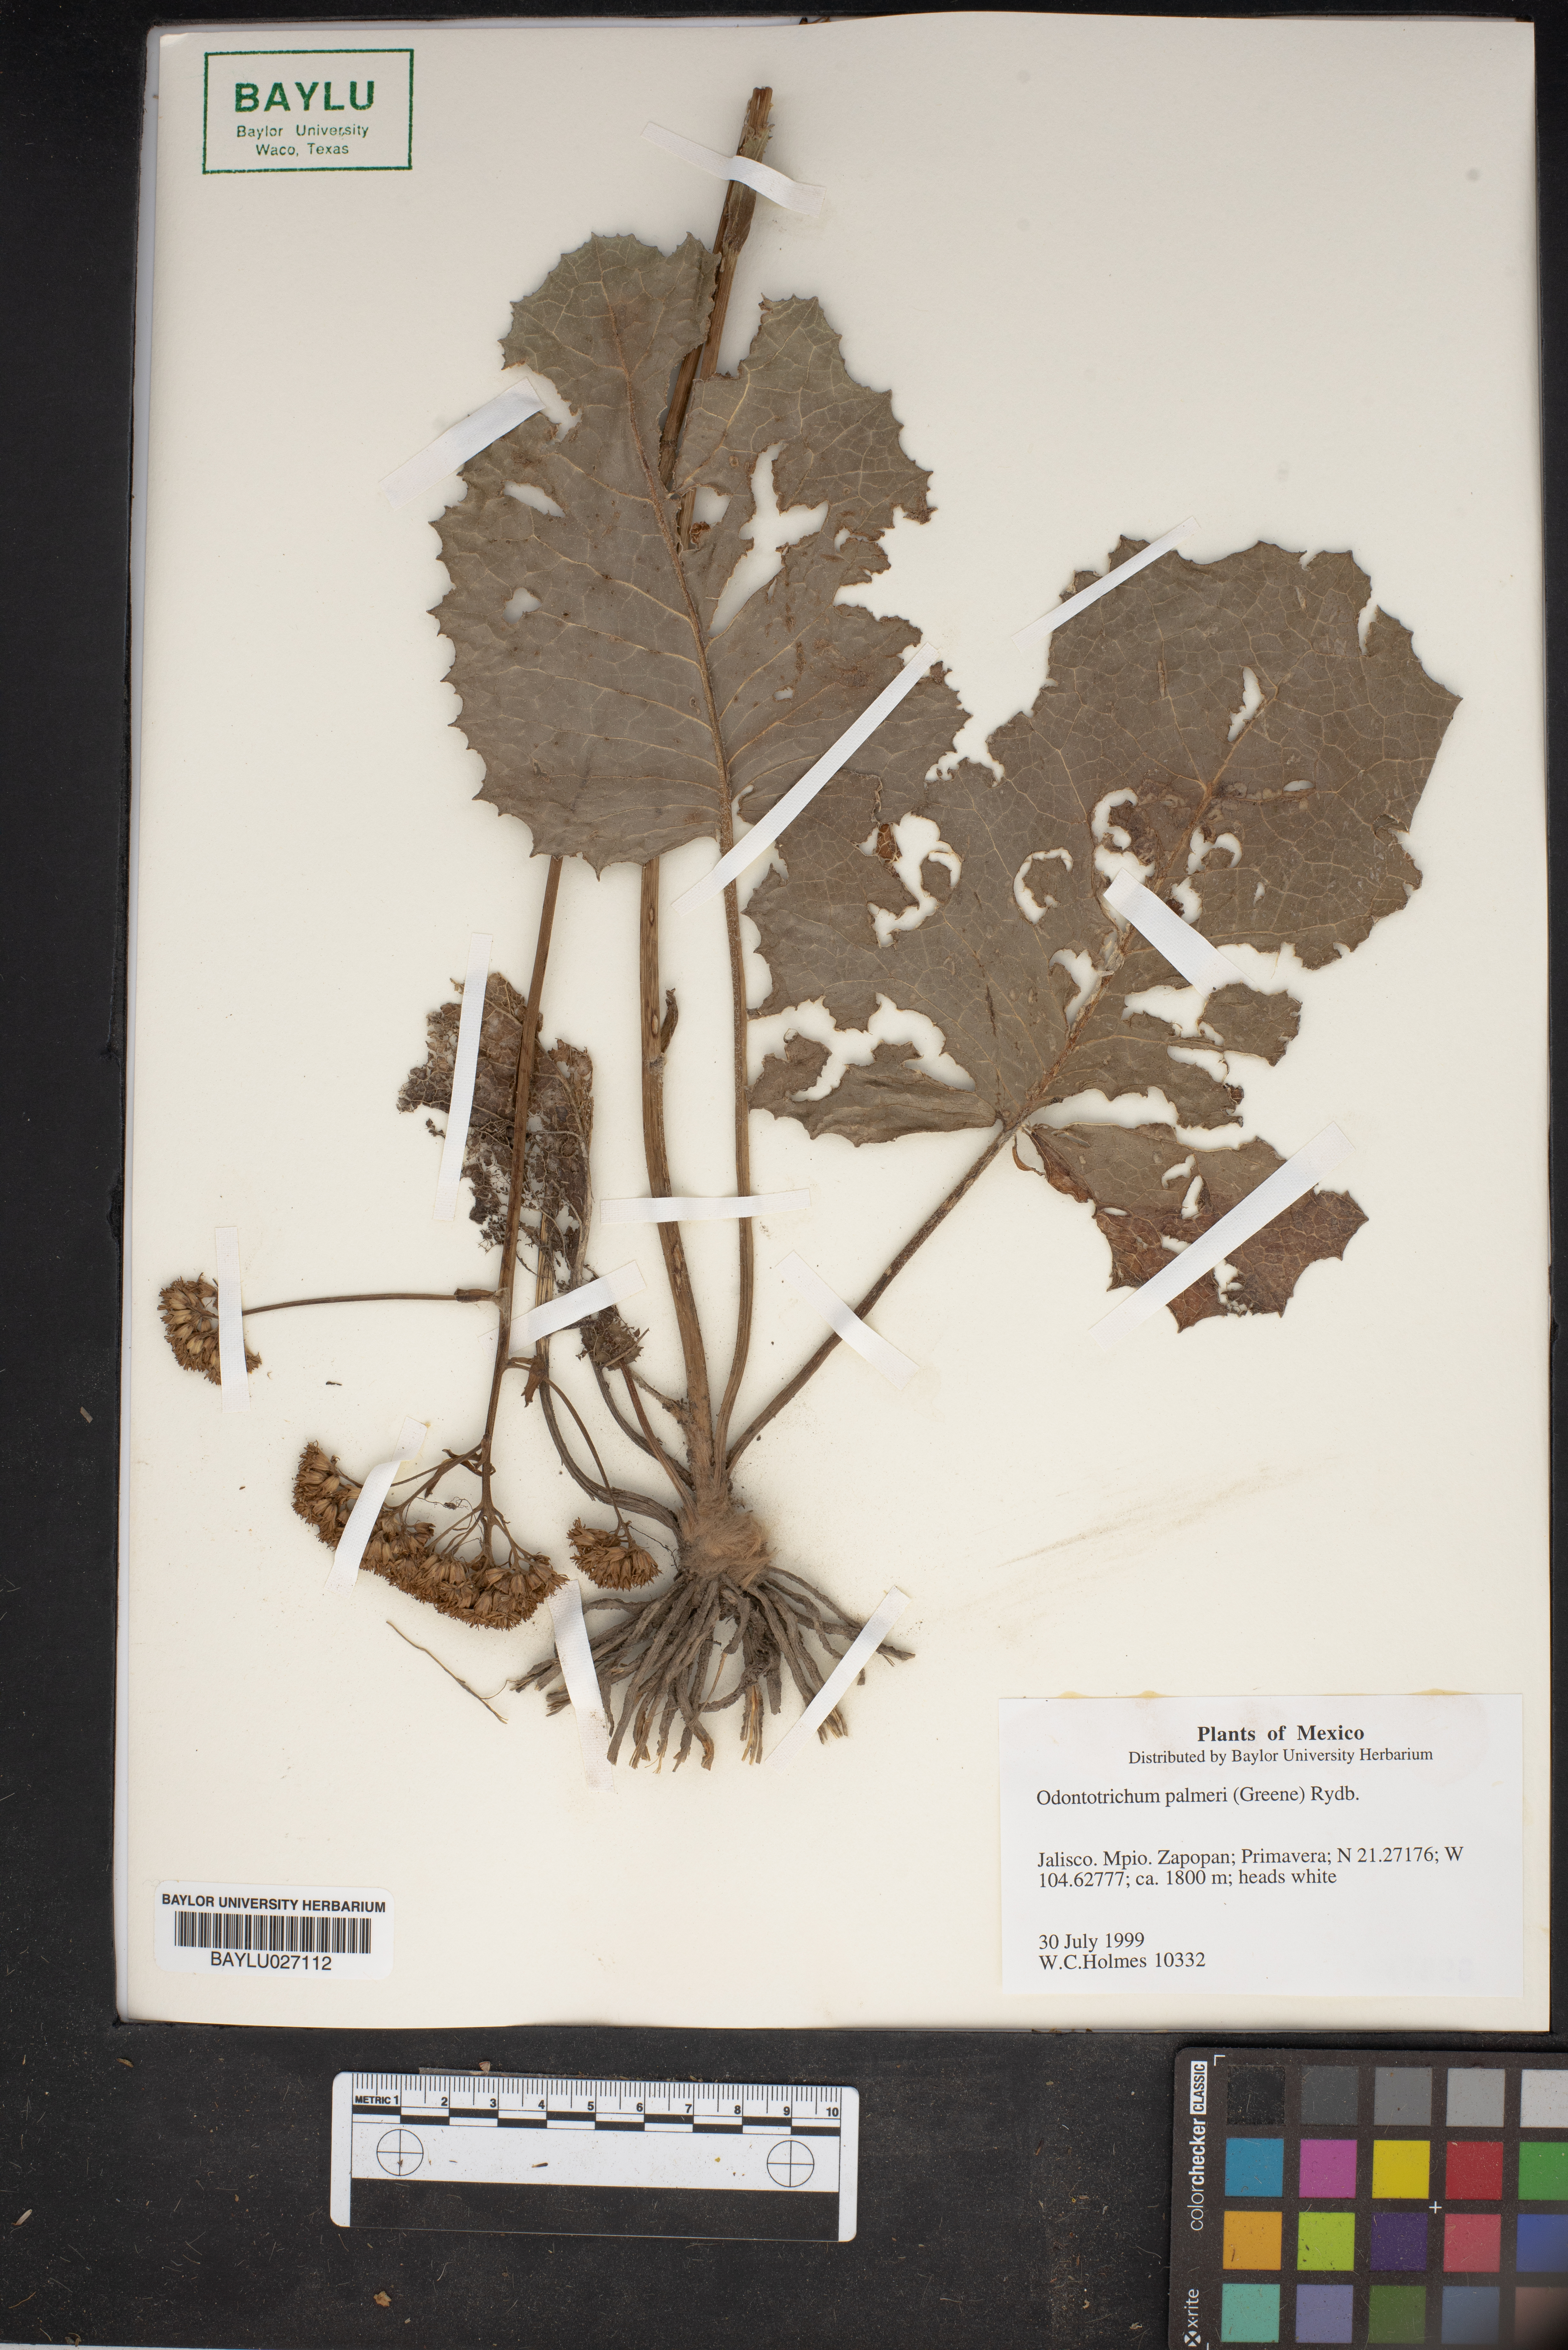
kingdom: Plantae
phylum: Tracheophyta
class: Magnoliopsida
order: Asterales
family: Asteraceae
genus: Psacalium
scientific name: Psacalium palmeri
